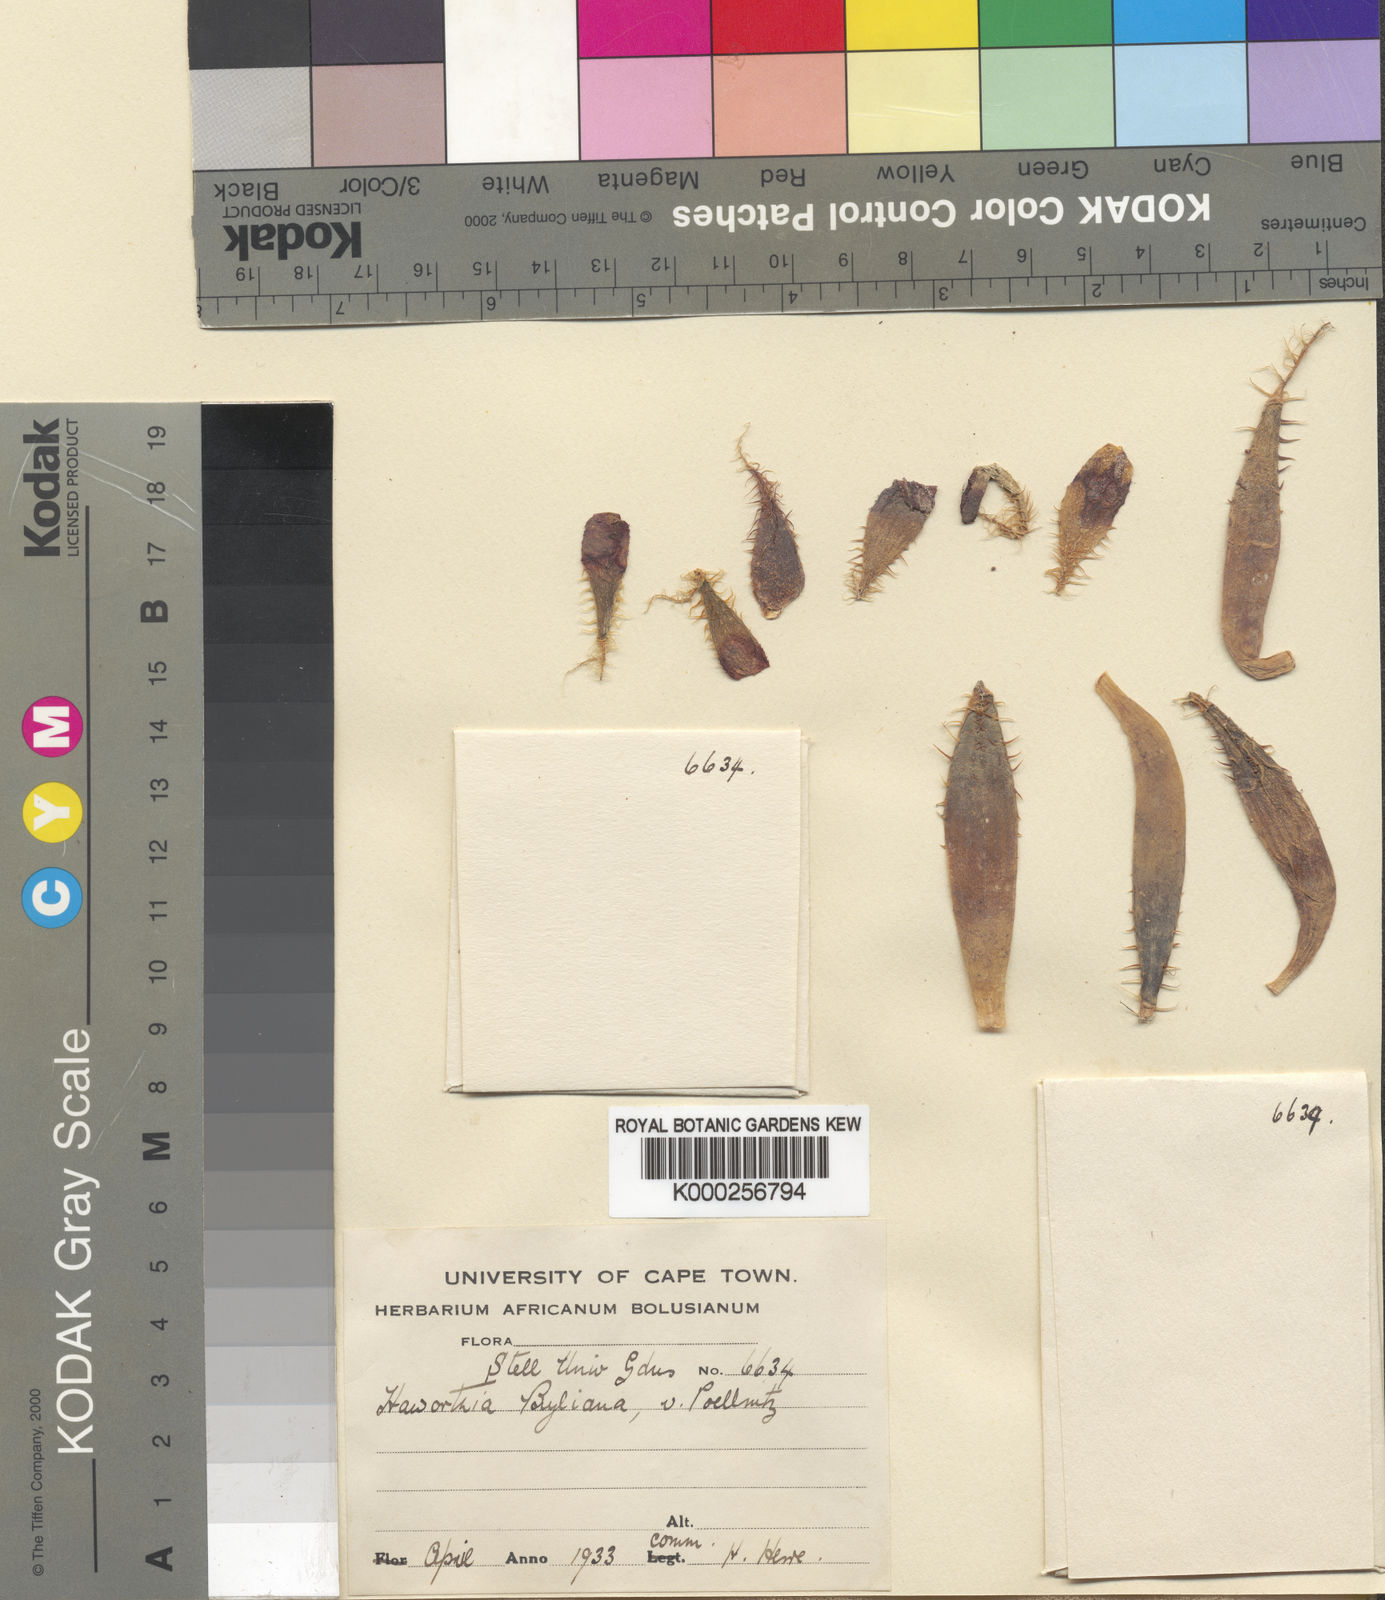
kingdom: Plantae
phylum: Tracheophyta
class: Liliopsida
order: Asparagales
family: Asphodelaceae
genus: Haworthia
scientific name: Haworthia arachnoidea
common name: Cobweb-aloe
